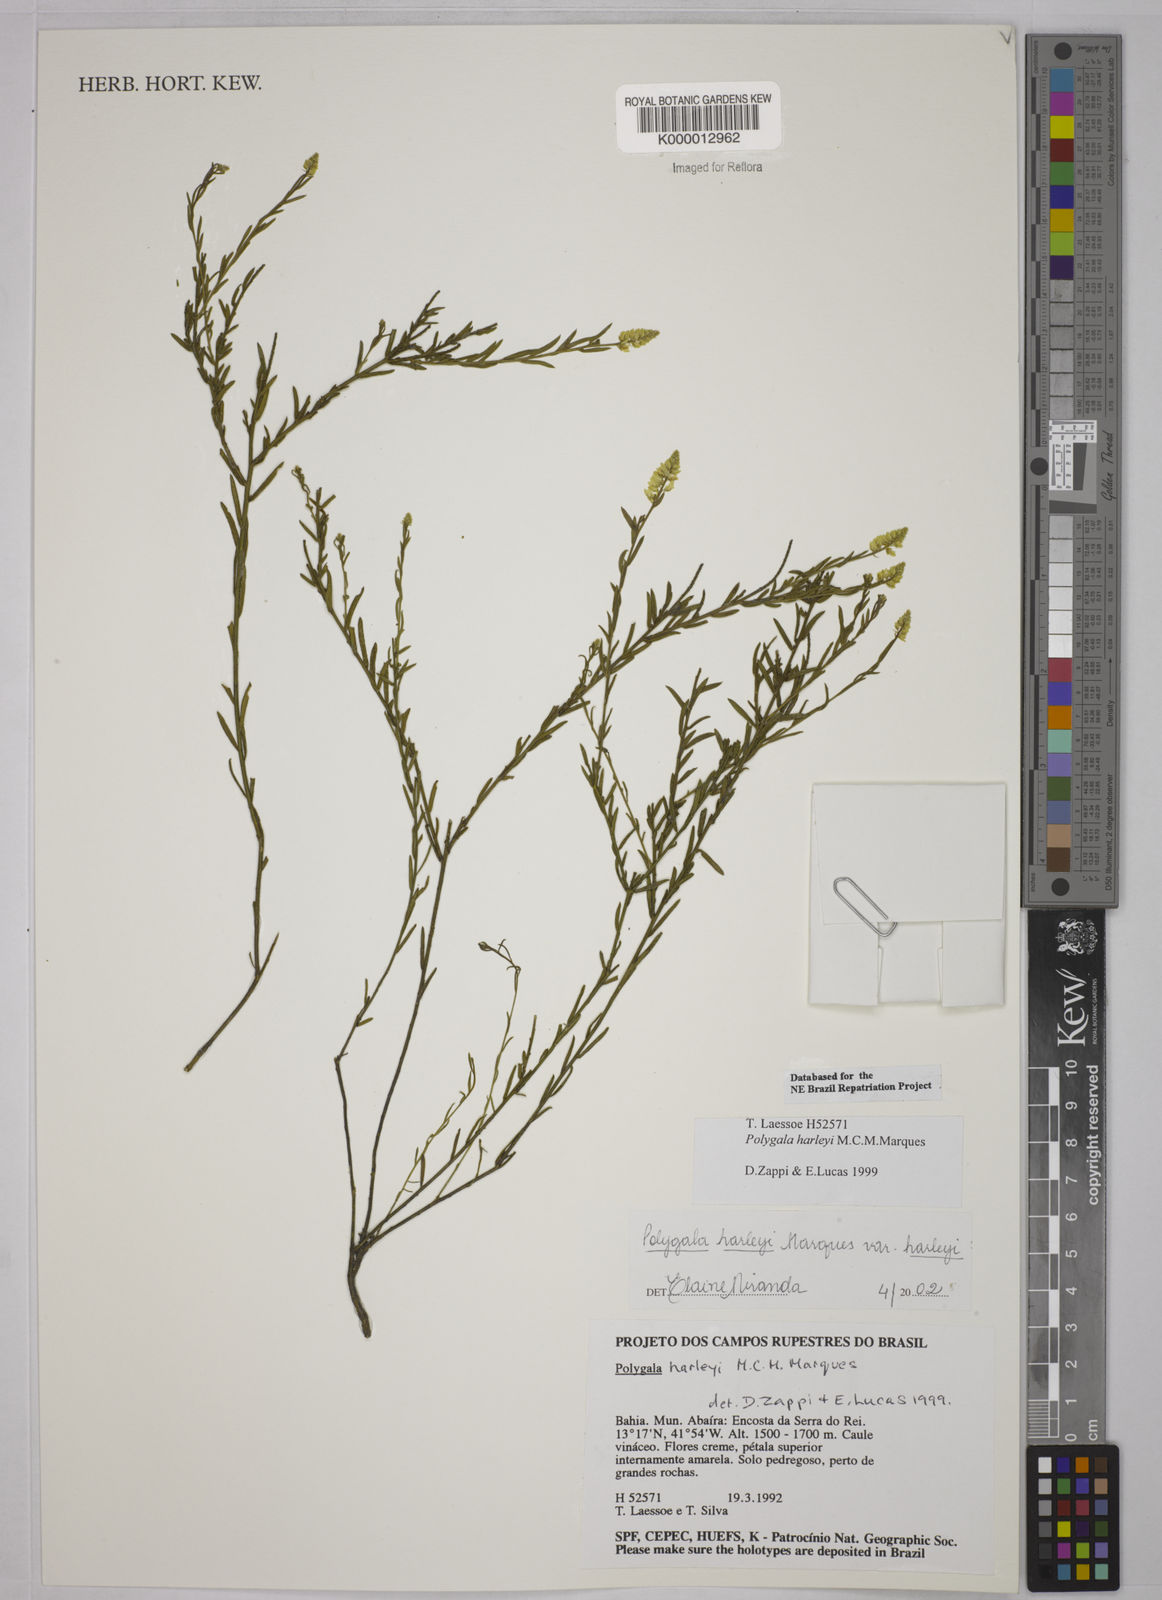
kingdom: Plantae
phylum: Tracheophyta
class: Magnoliopsida
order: Fabales
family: Polygalaceae
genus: Polygala
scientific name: Polygala
